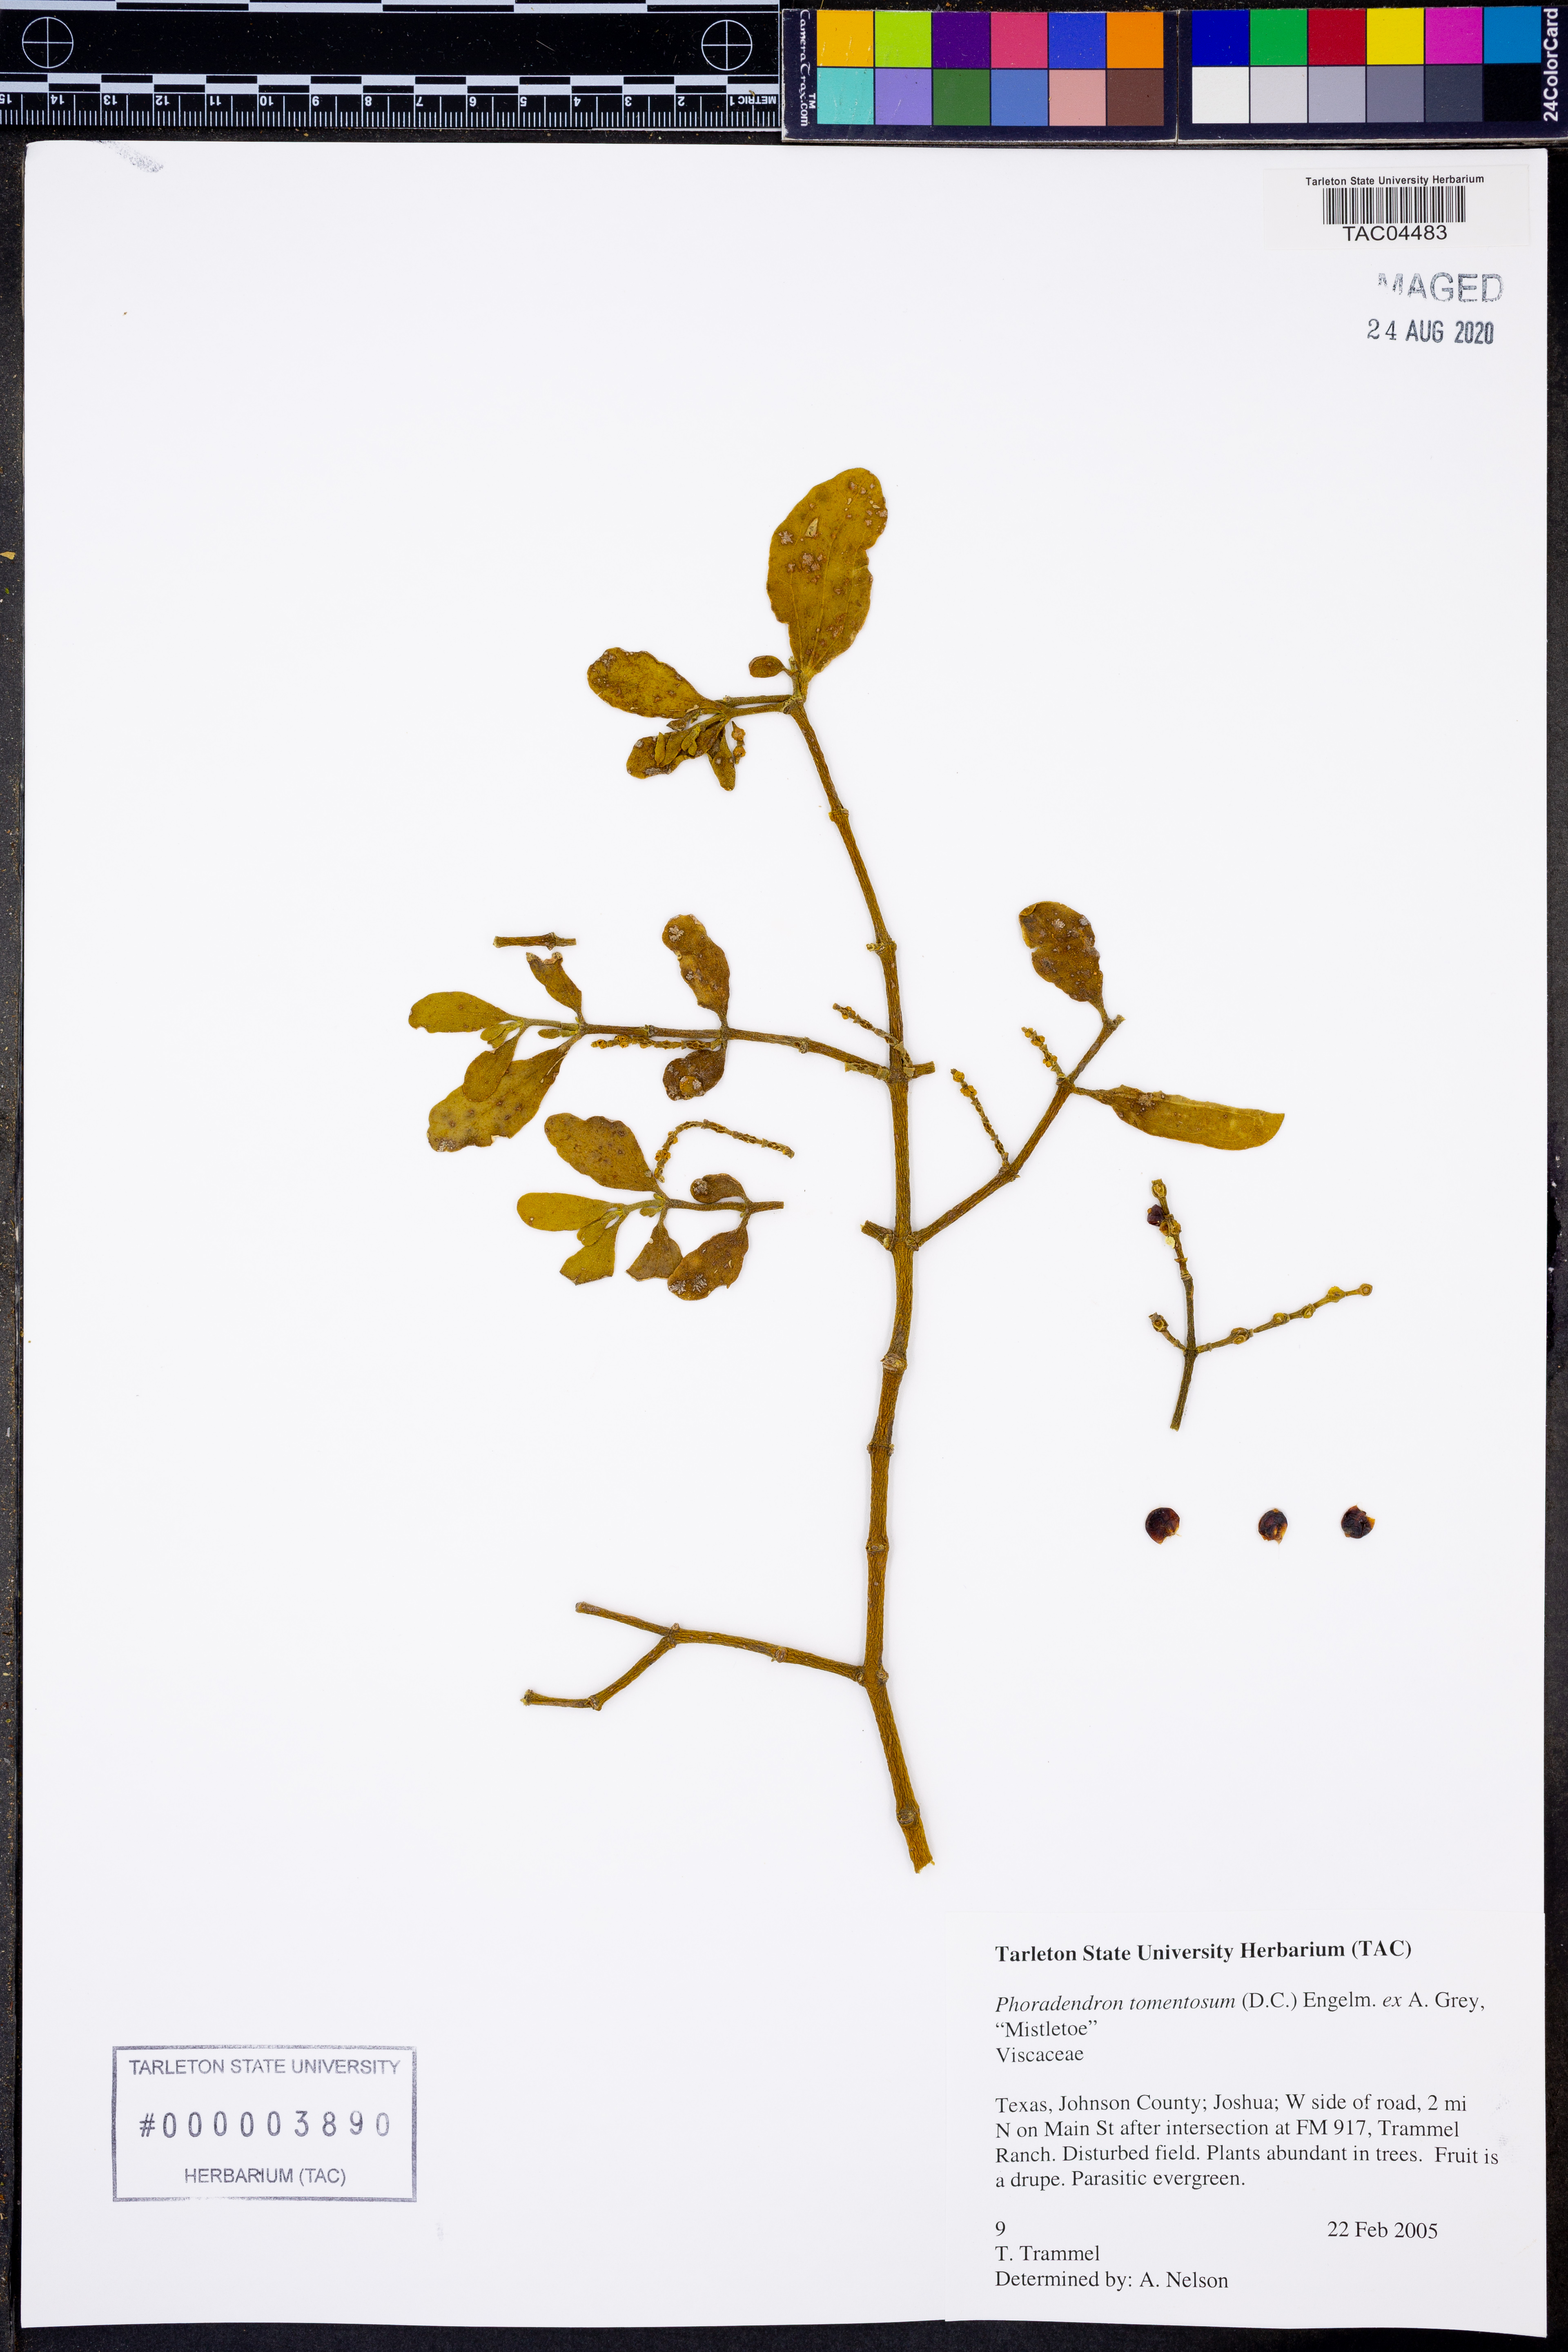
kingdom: Plantae
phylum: Tracheophyta
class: Magnoliopsida
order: Santalales
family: Viscaceae
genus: Phoradendron
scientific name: Phoradendron leucarpum
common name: Pacific mistletoe
